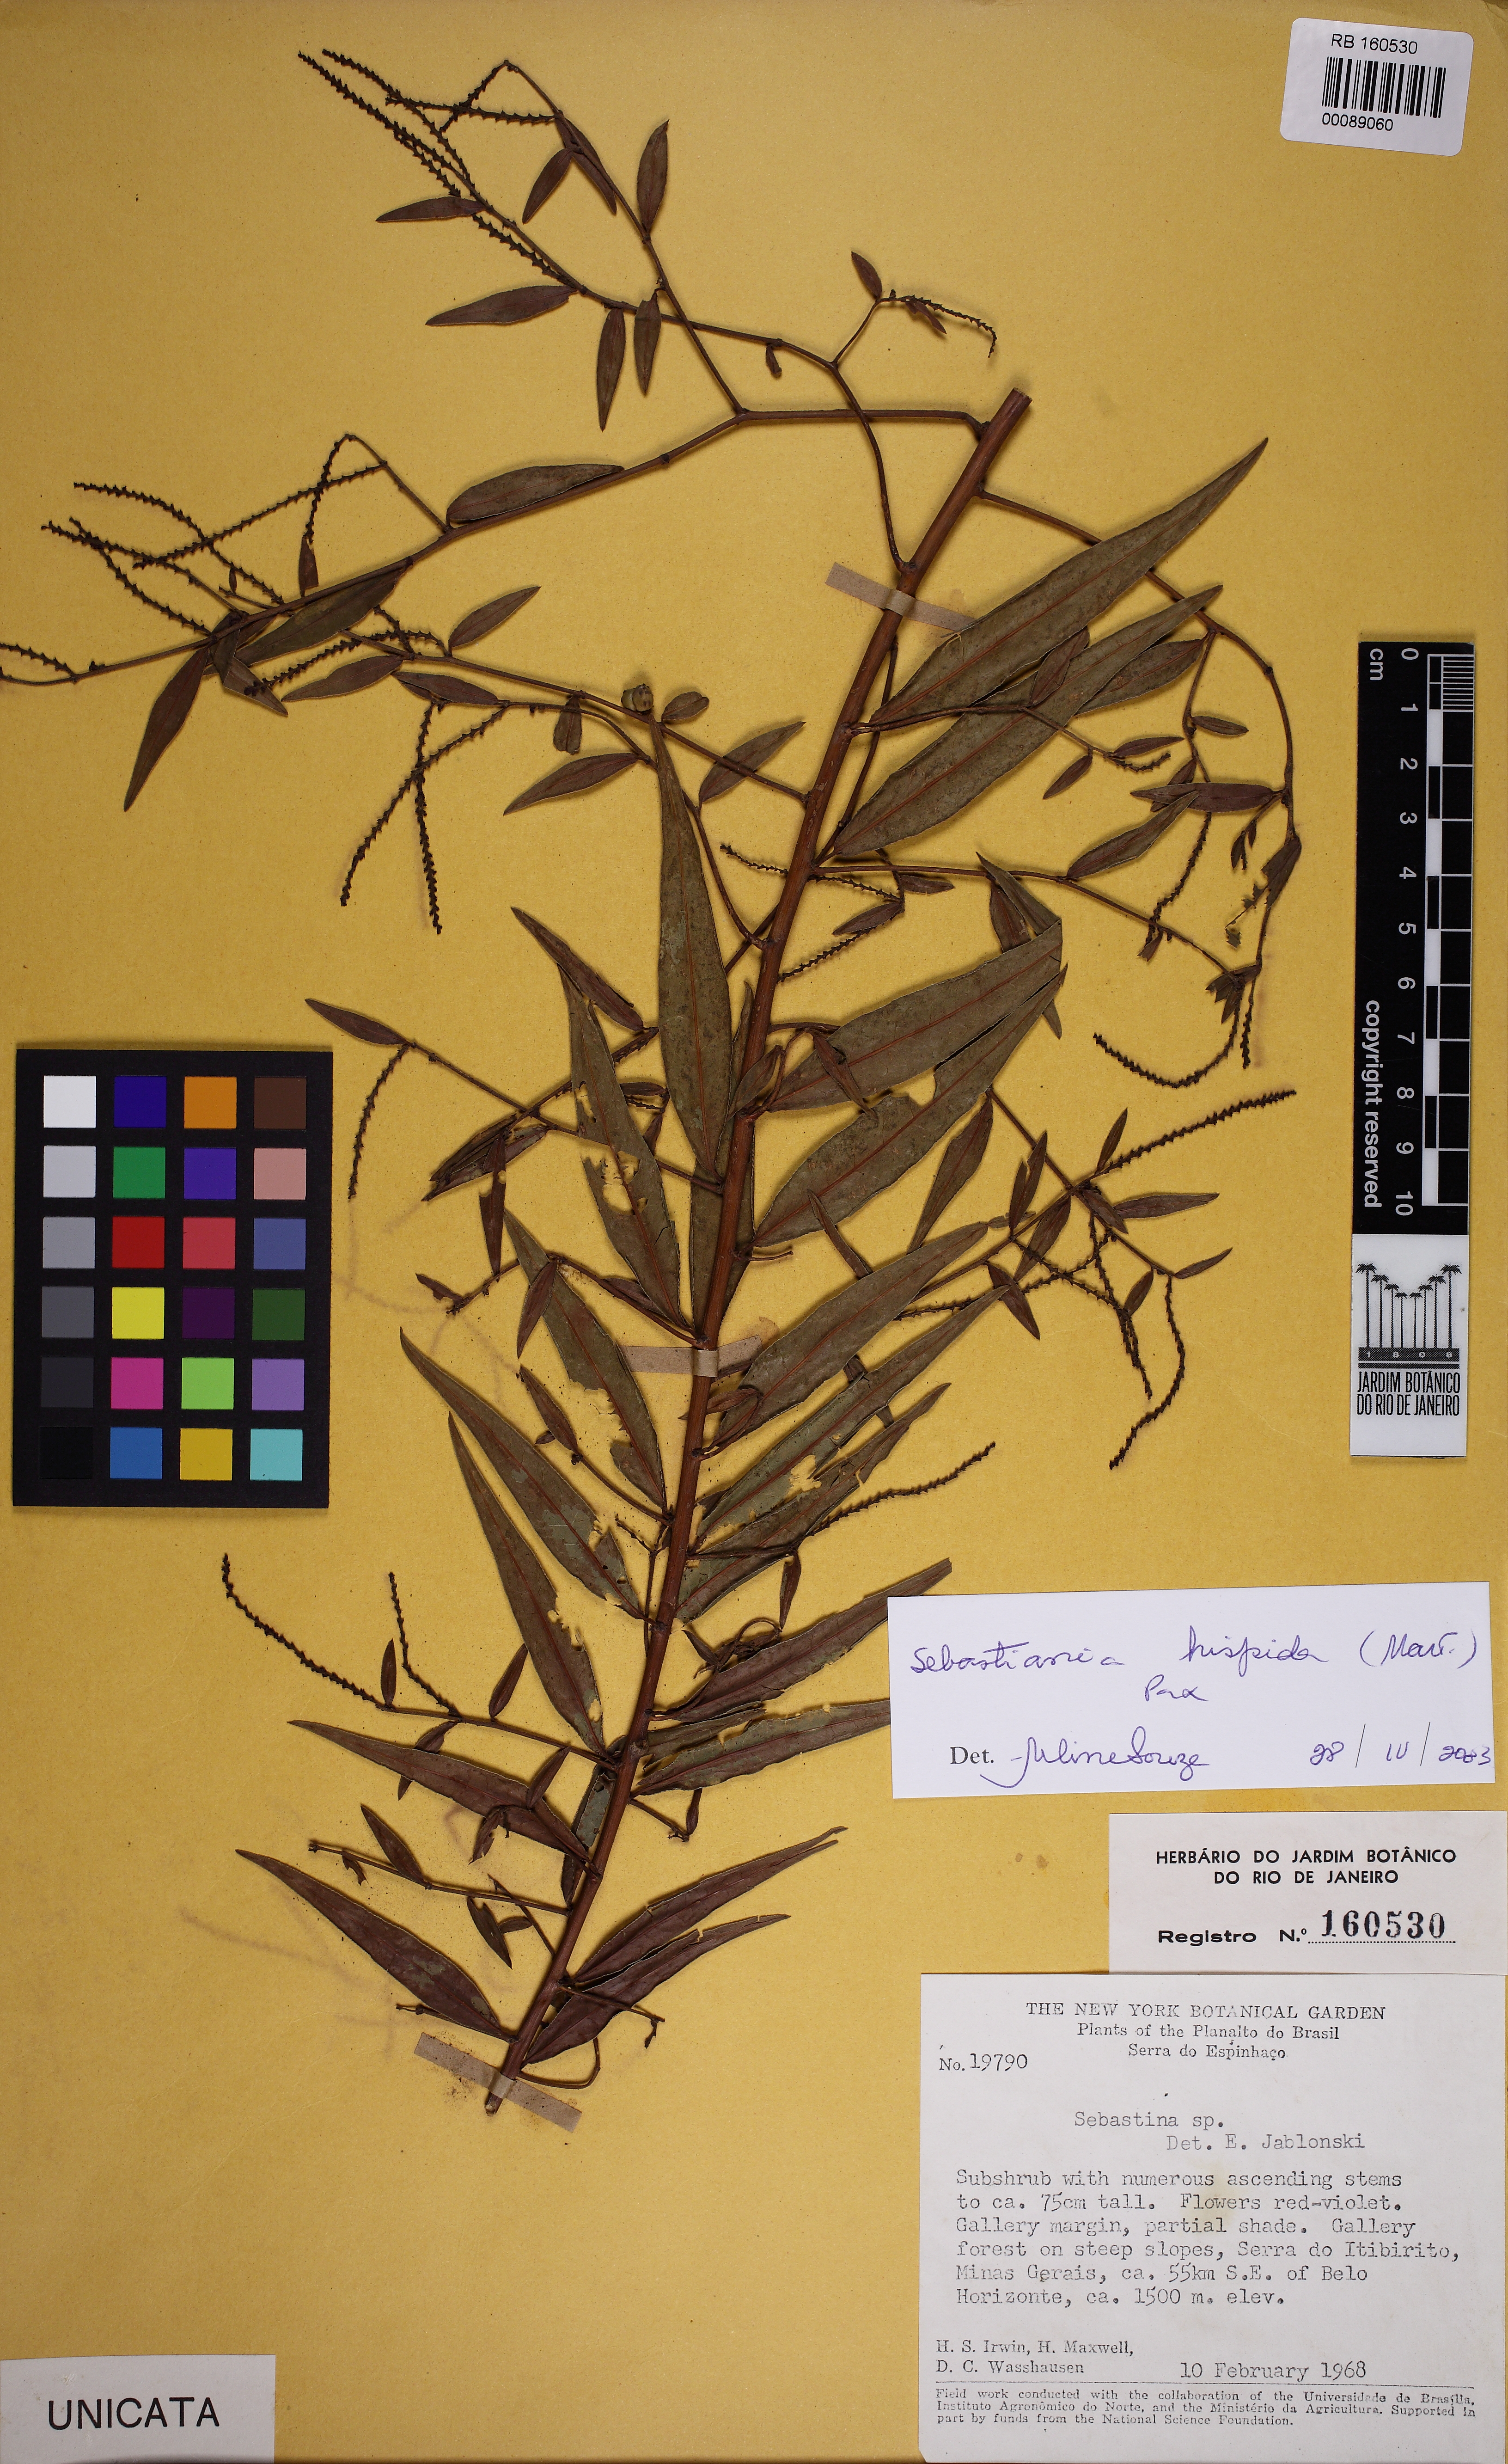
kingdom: Plantae
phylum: Tracheophyta
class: Magnoliopsida
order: Malpighiales
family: Euphorbiaceae
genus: Microstachys
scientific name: Microstachys hispida
